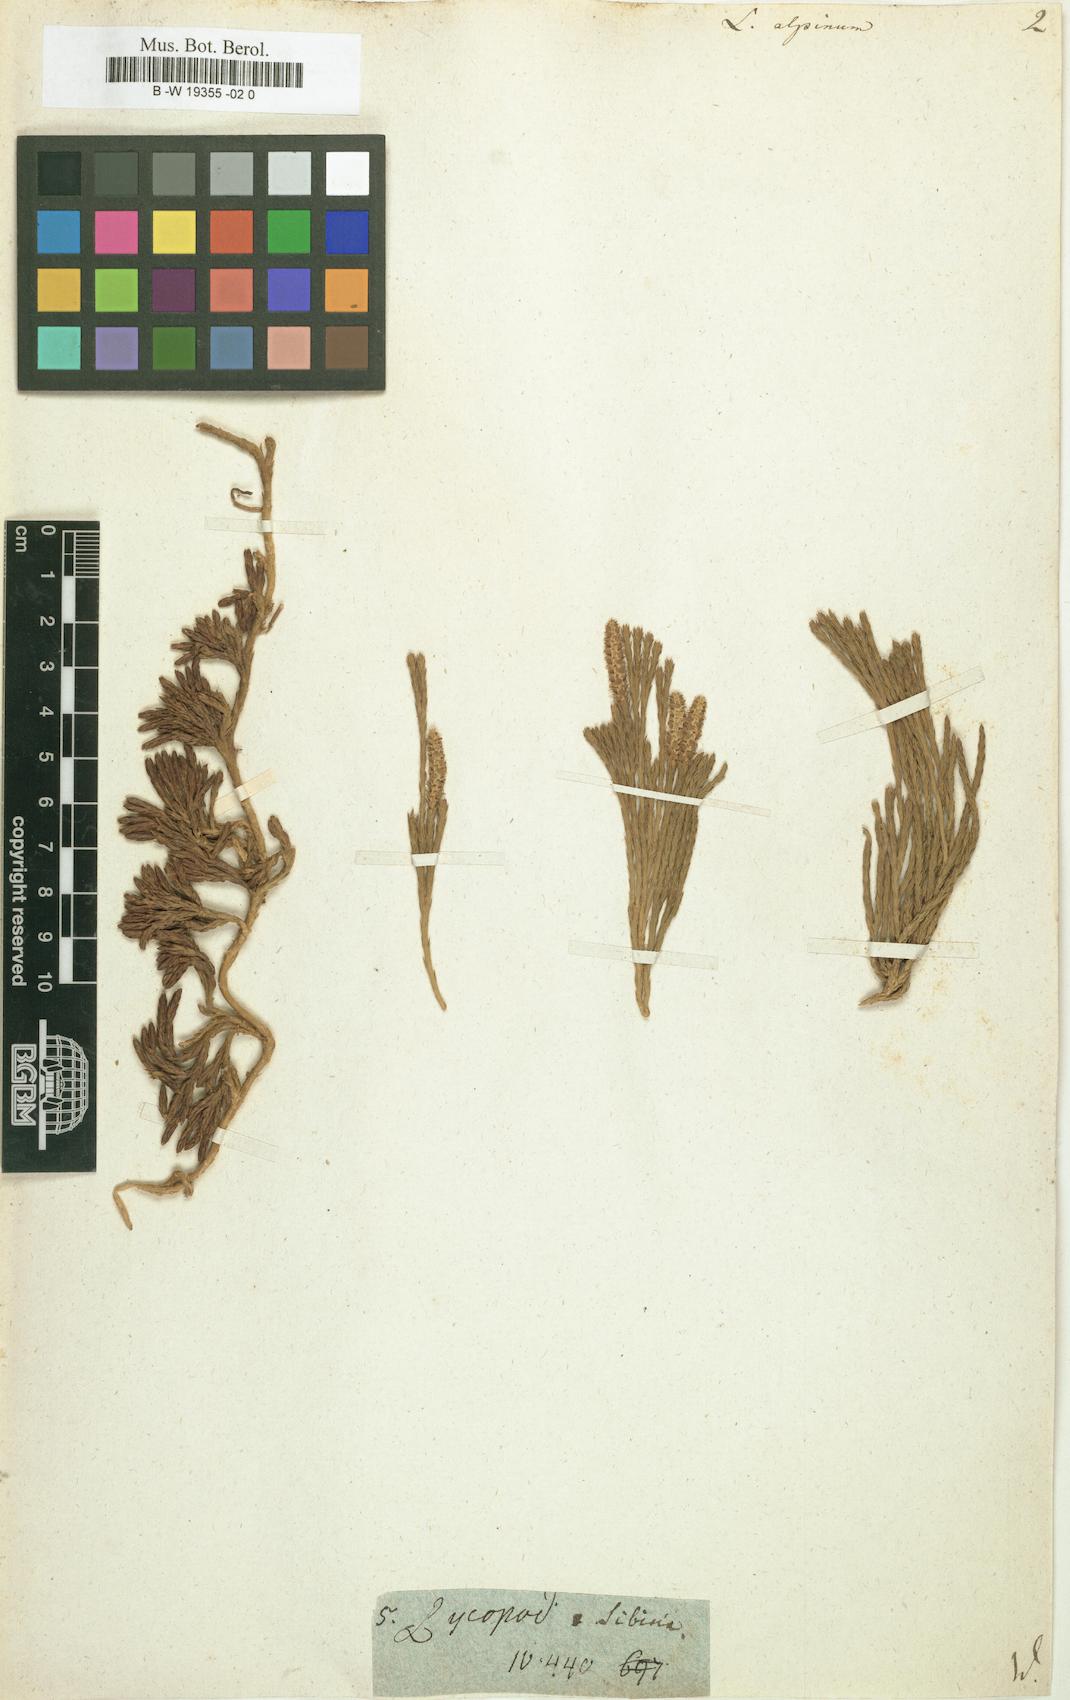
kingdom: Plantae
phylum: Tracheophyta
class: Lycopodiopsida
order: Lycopodiales
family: Lycopodiaceae
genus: Diphasiastrum
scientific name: Diphasiastrum alpinum
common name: Alpine clubmoss
